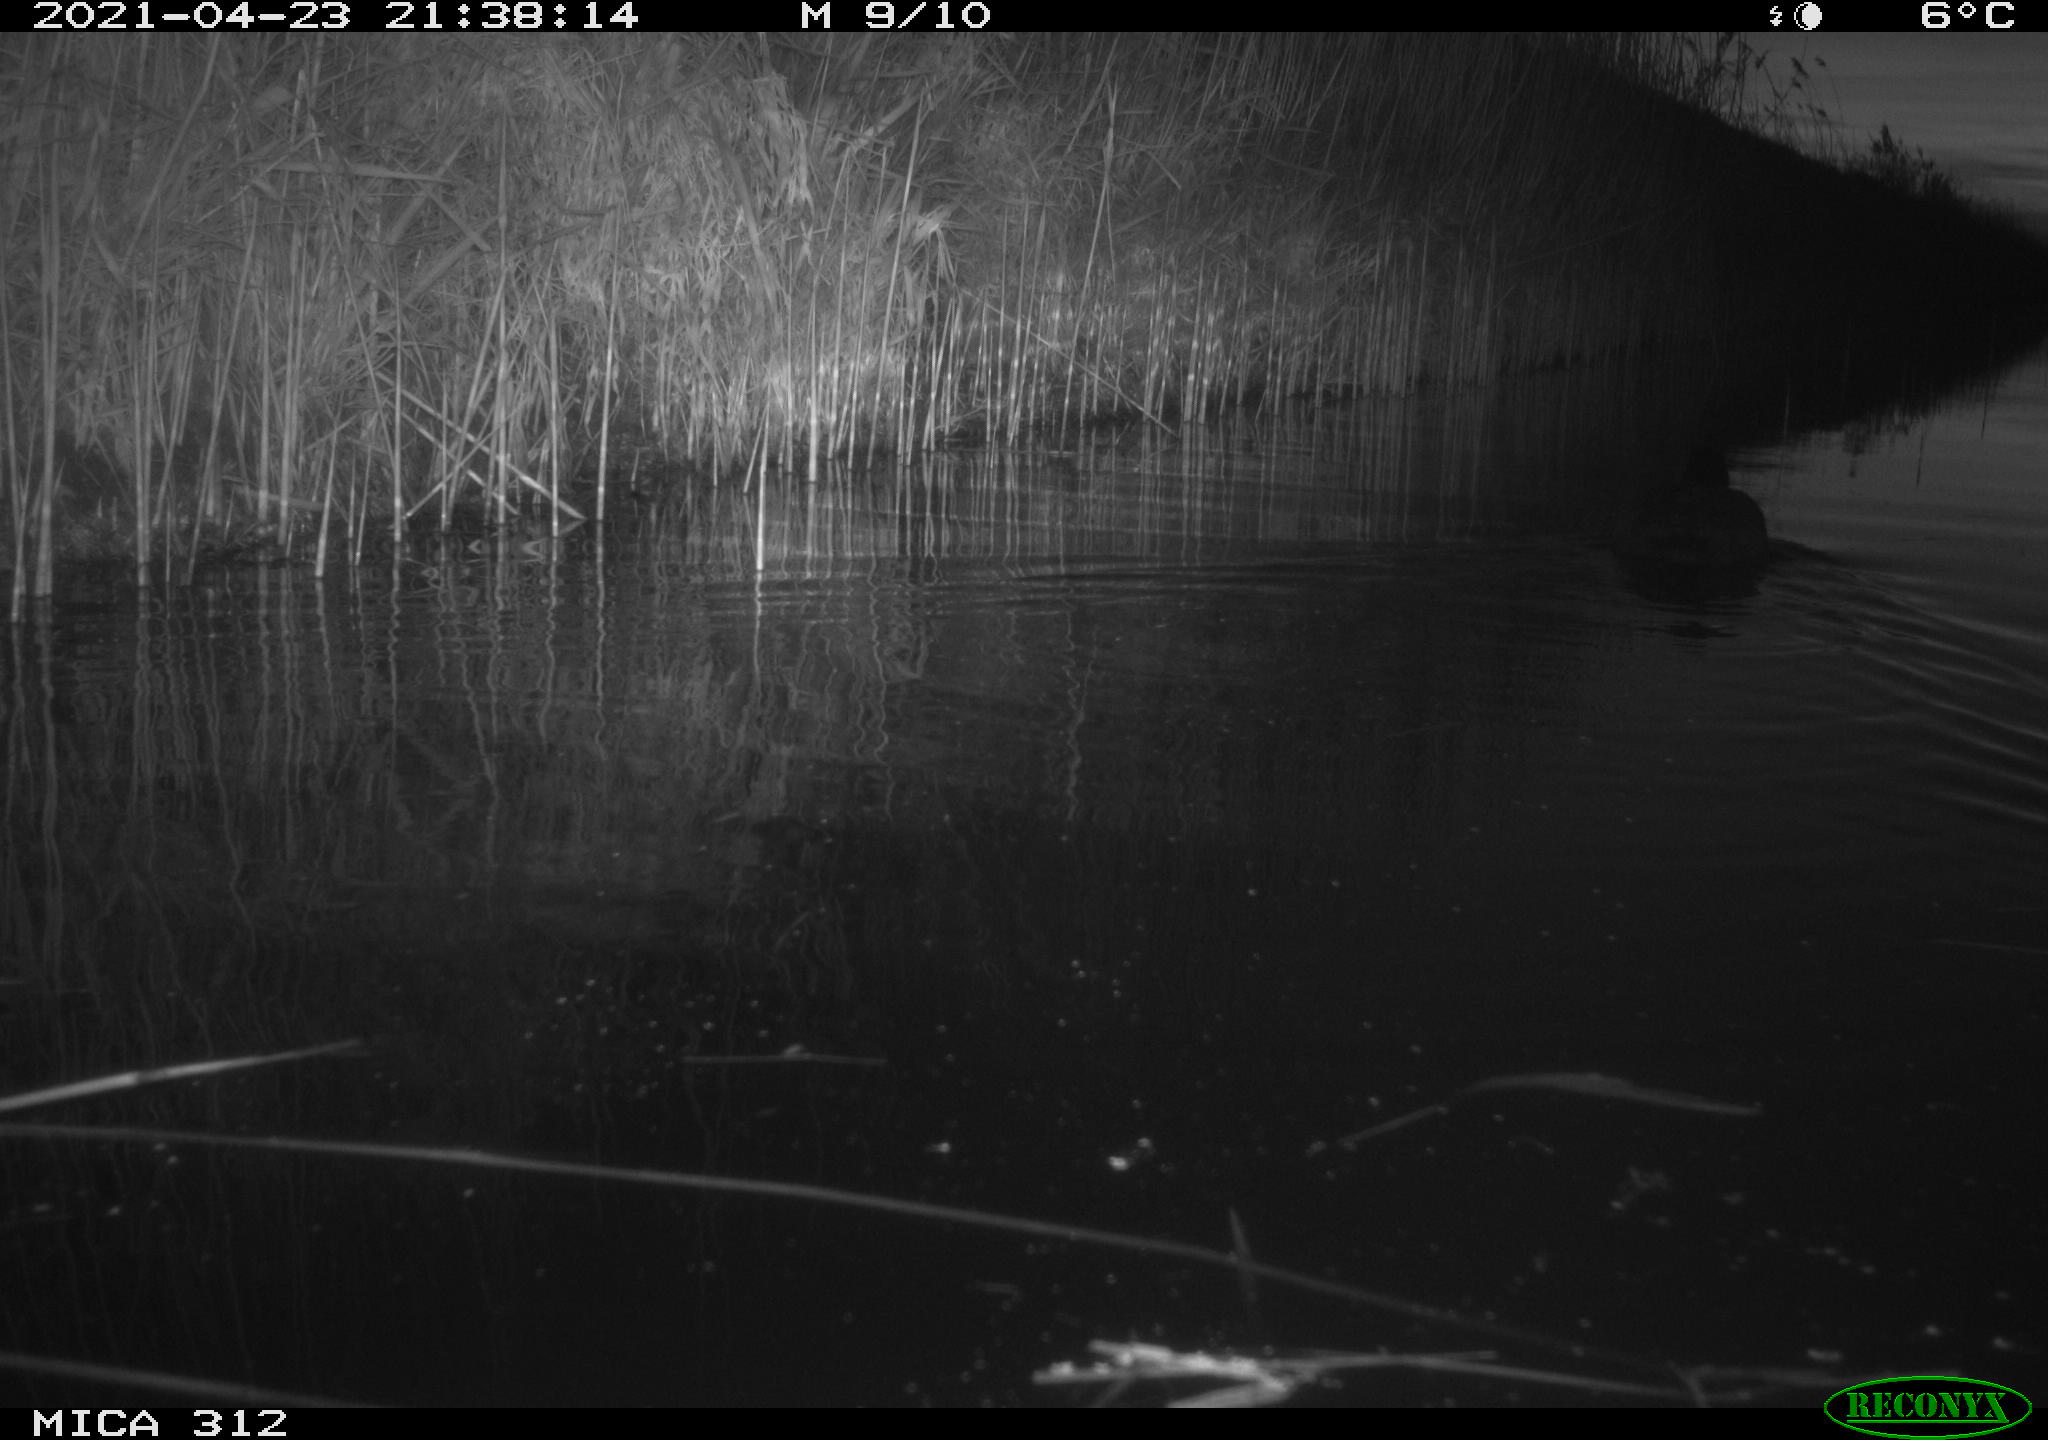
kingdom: Animalia
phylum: Chordata
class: Aves
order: Gruiformes
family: Rallidae
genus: Fulica
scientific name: Fulica atra
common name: Eurasian coot
